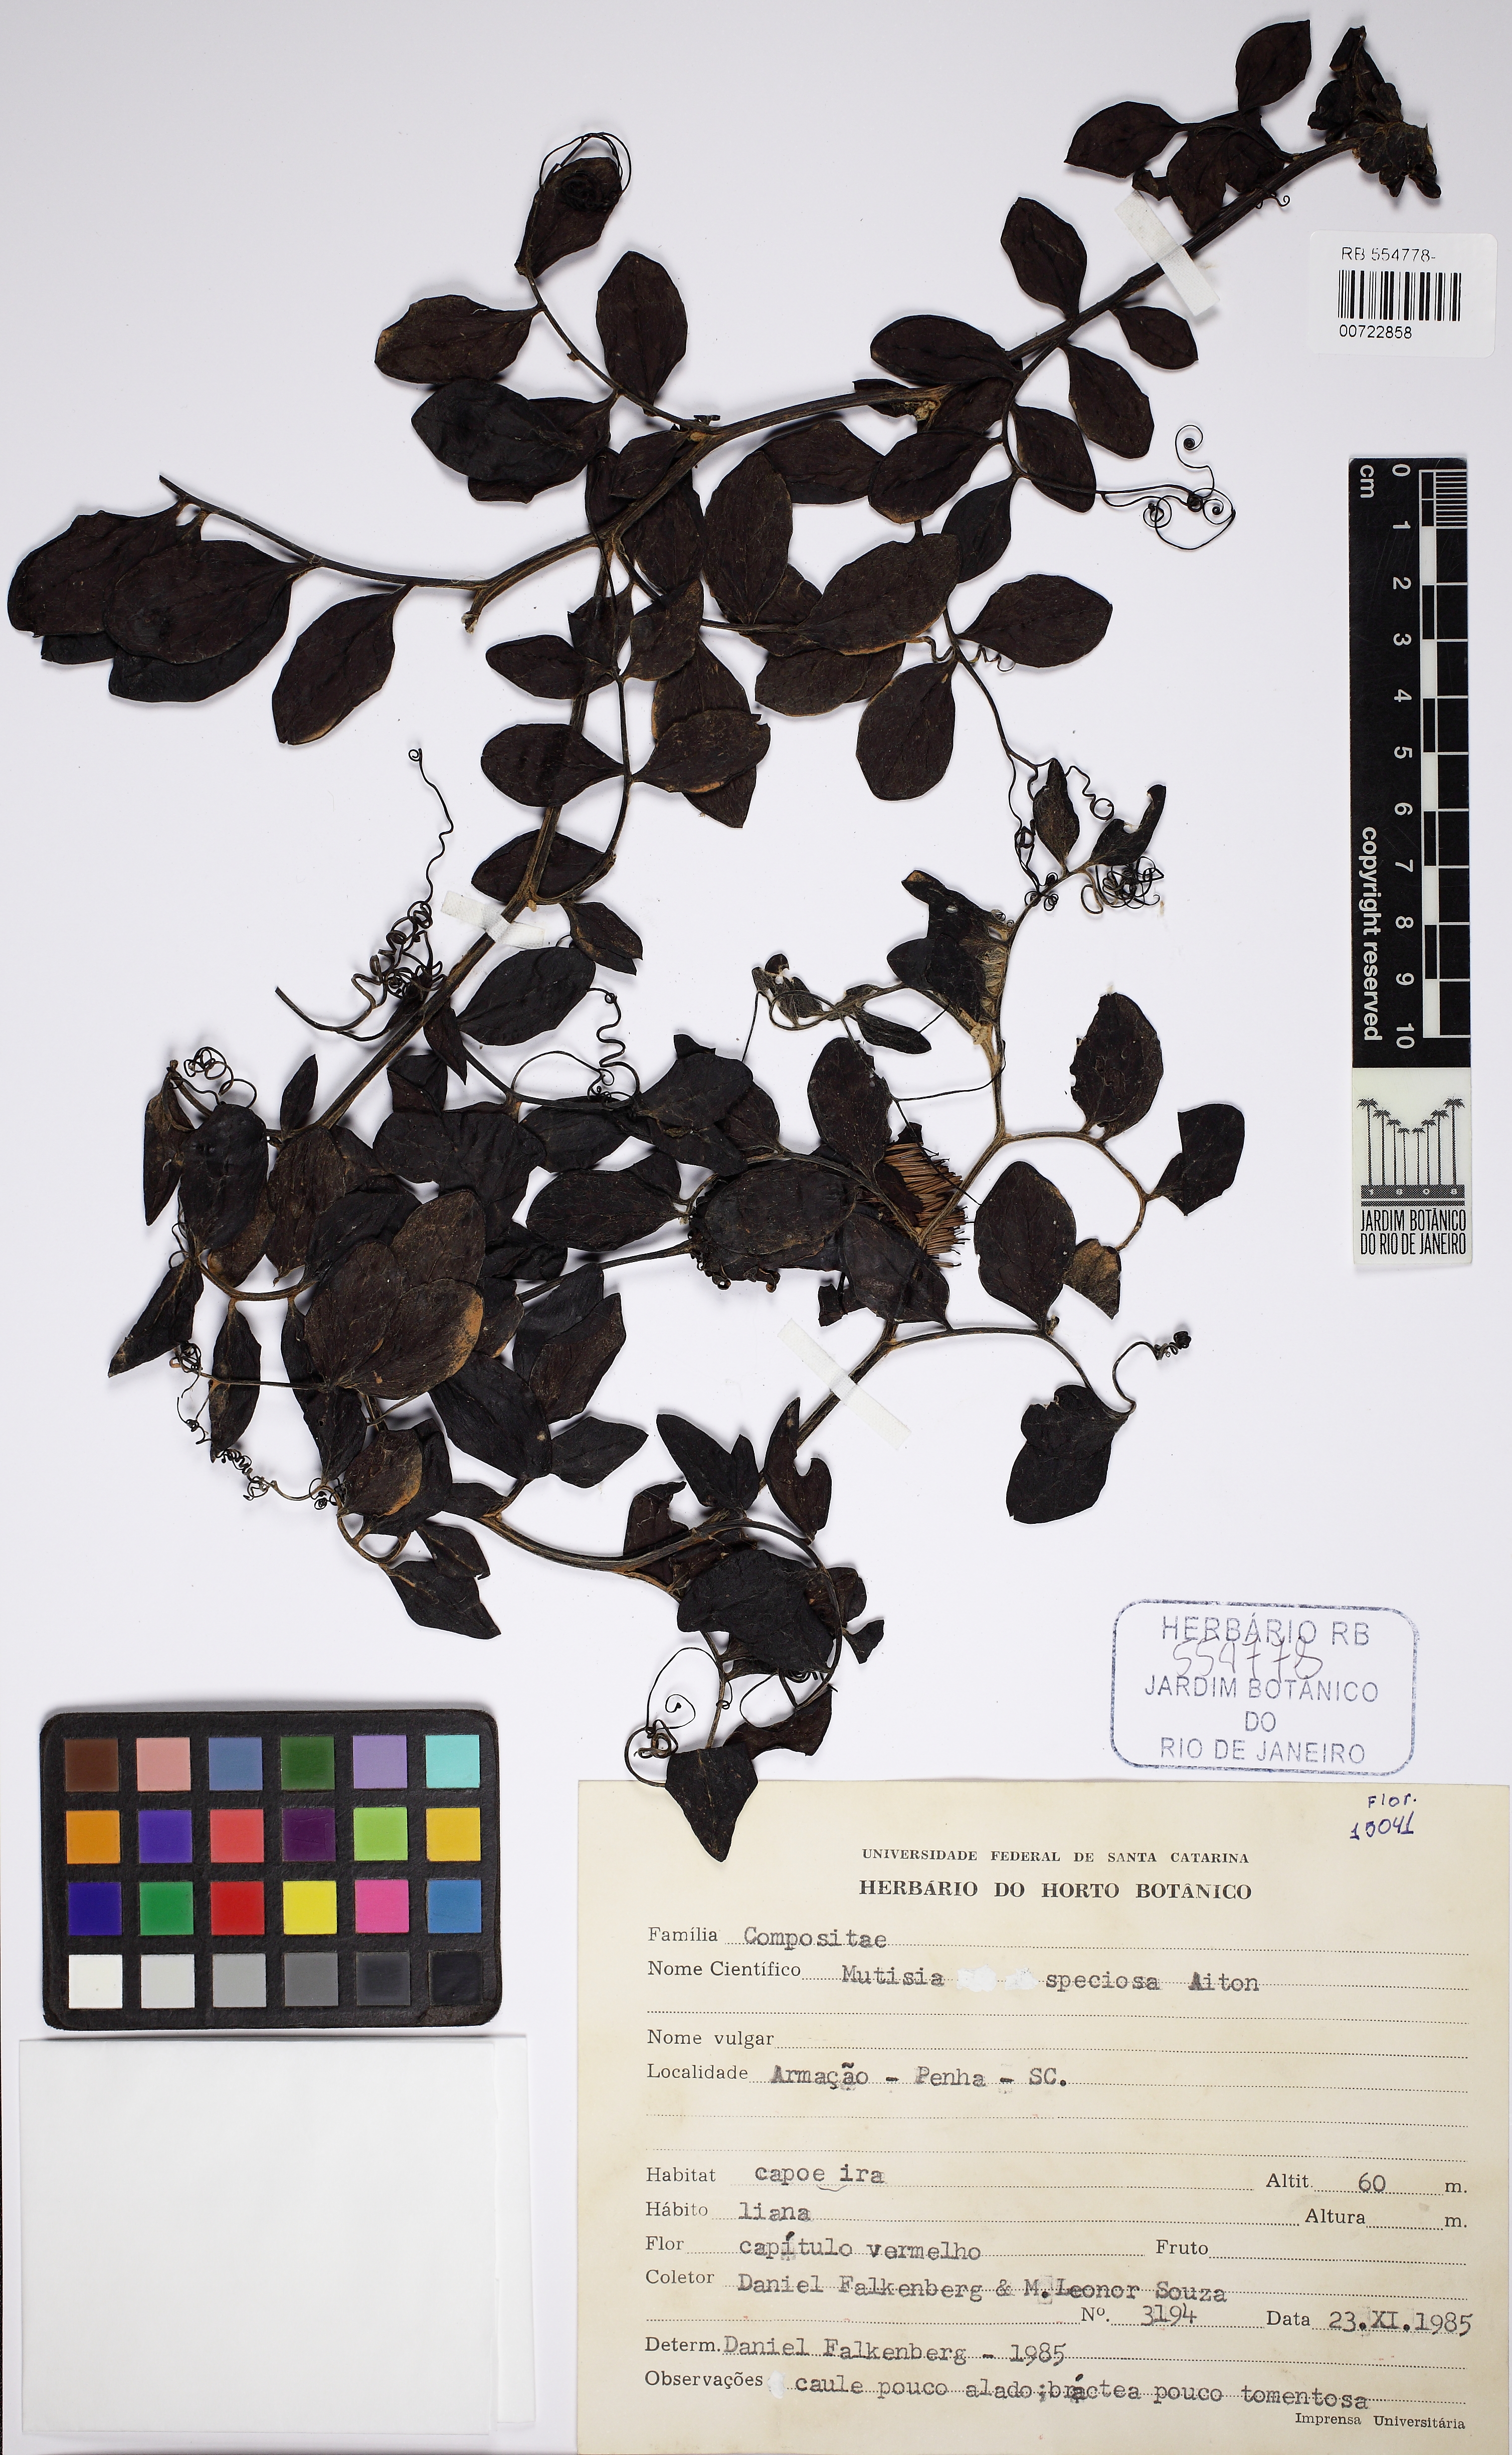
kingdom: Plantae
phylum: Tracheophyta
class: Magnoliopsida
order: Asterales
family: Asteraceae
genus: Mutisia
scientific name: Mutisia speciosa
